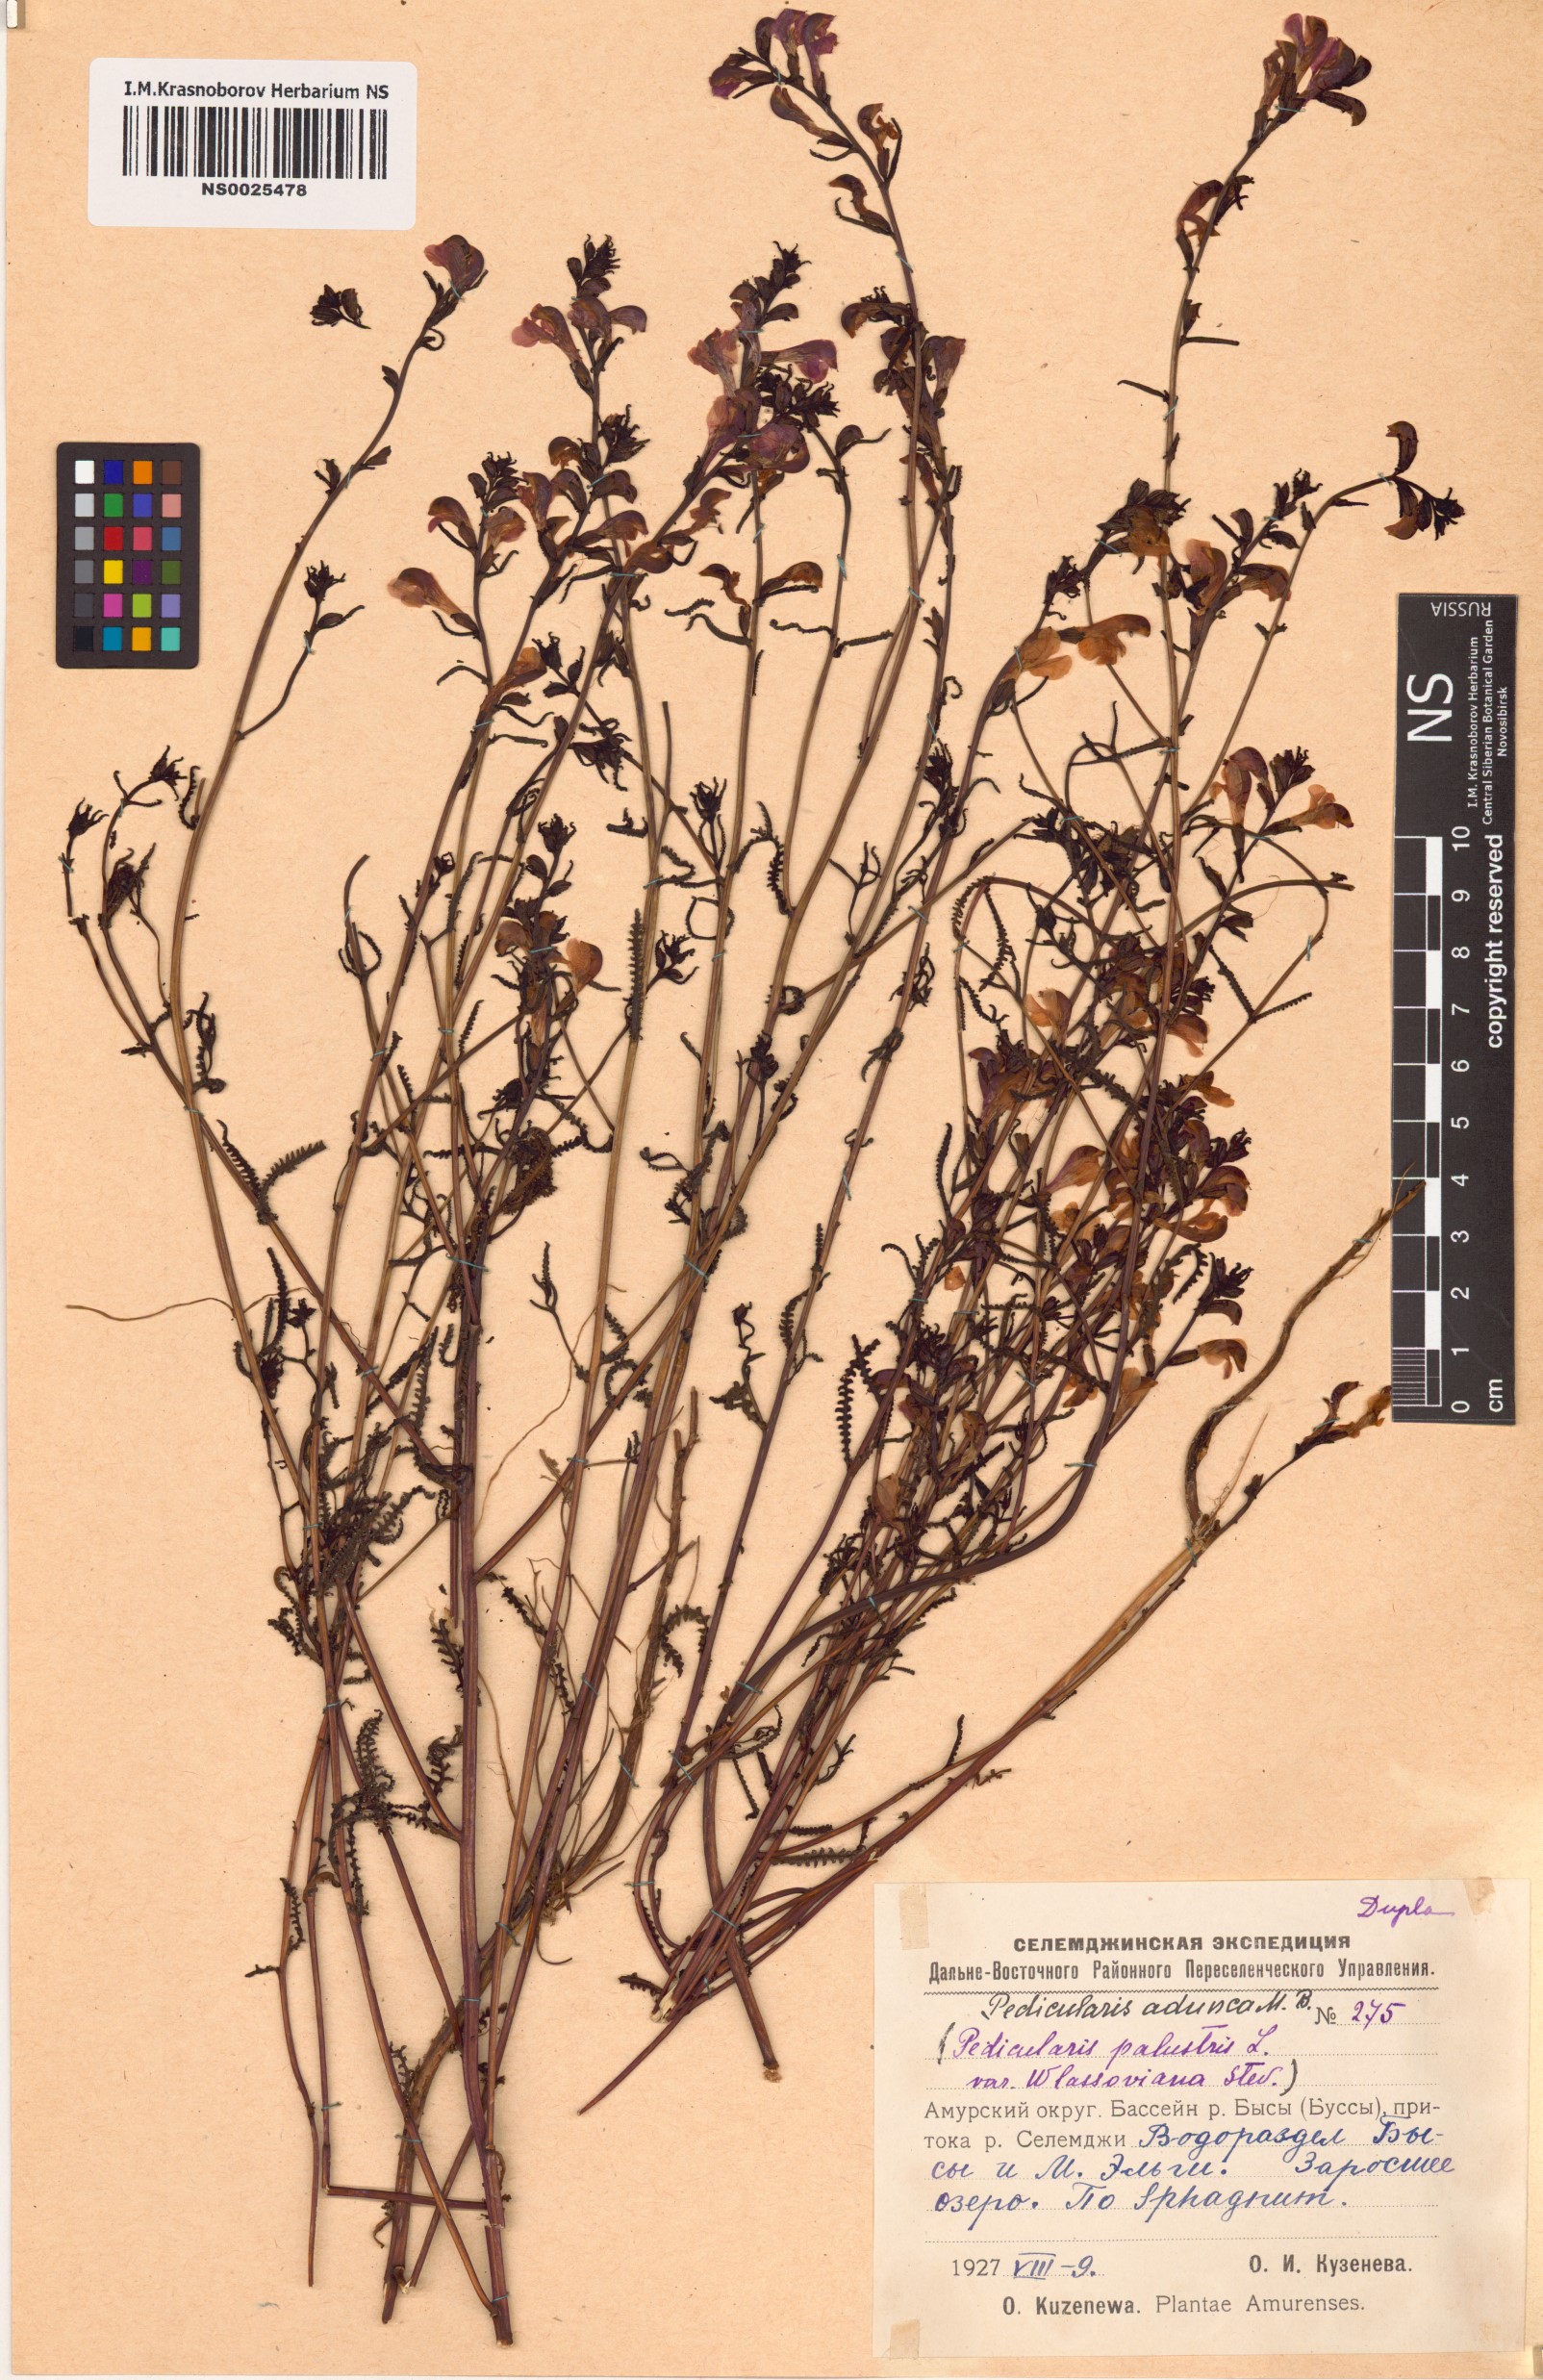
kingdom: Plantae
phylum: Tracheophyta
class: Magnoliopsida
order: Lamiales
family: Orobanchaceae
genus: Pedicularis
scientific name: Pedicularis adunca
